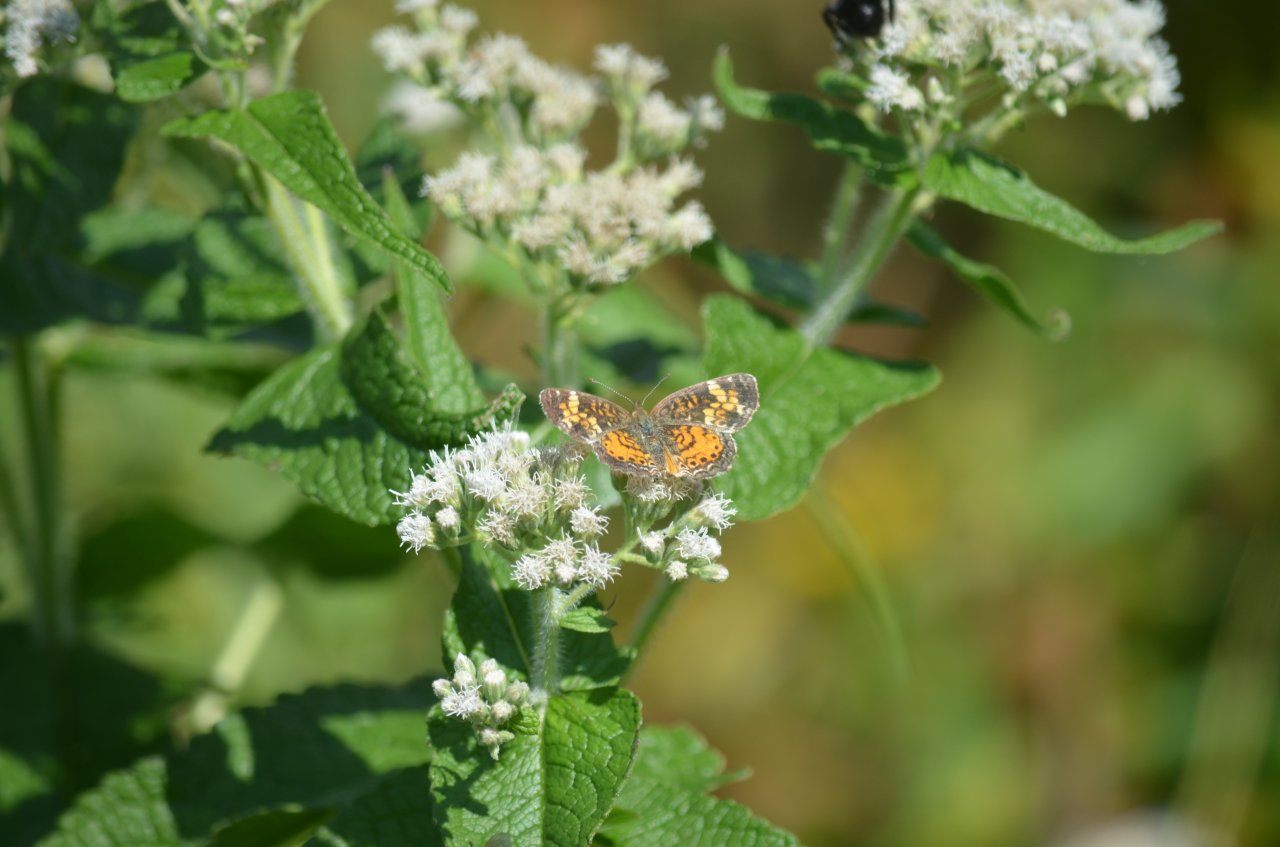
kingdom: Animalia
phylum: Arthropoda
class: Insecta
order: Lepidoptera
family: Nymphalidae
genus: Phyciodes
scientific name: Phyciodes tharos
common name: Northern Crescent
